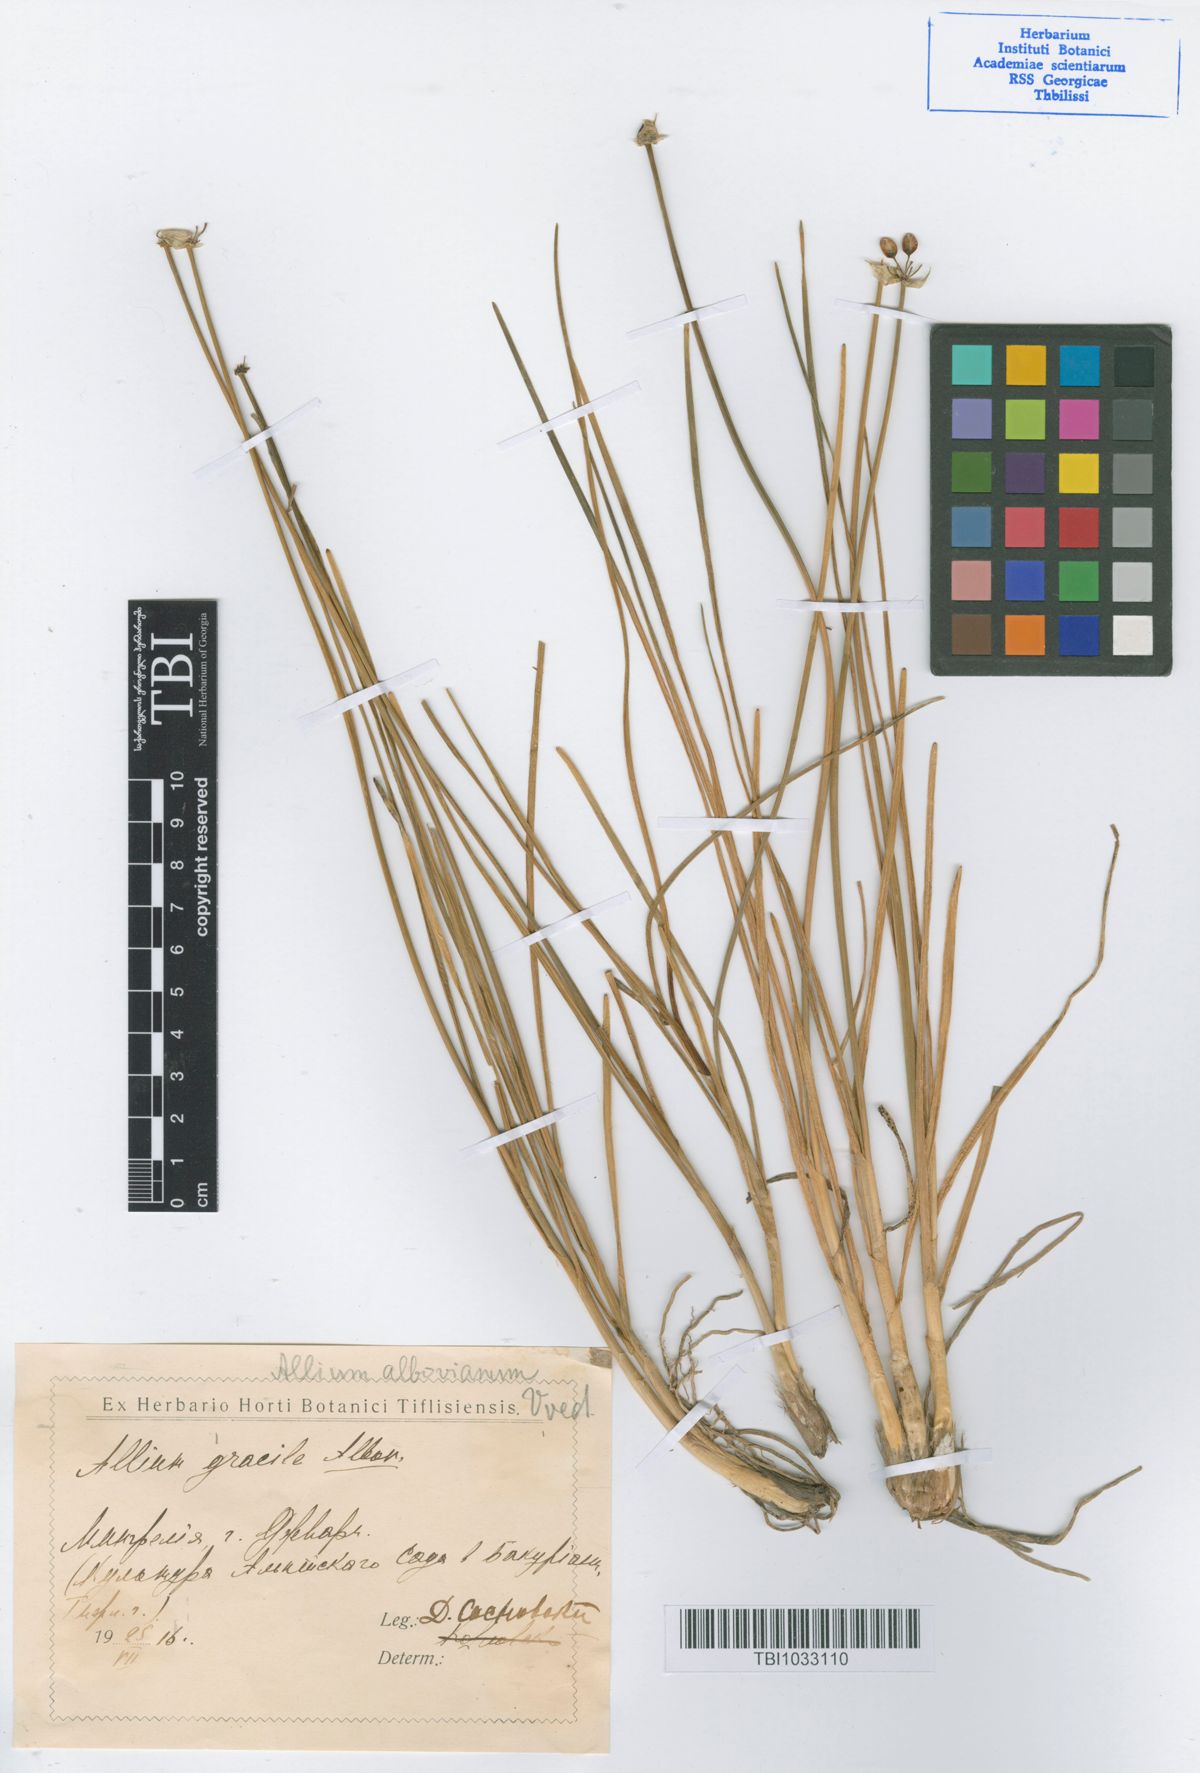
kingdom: Plantae
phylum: Tracheophyta
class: Liliopsida
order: Asparagales
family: Amaryllidaceae
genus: Allium
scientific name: Allium albovianum
